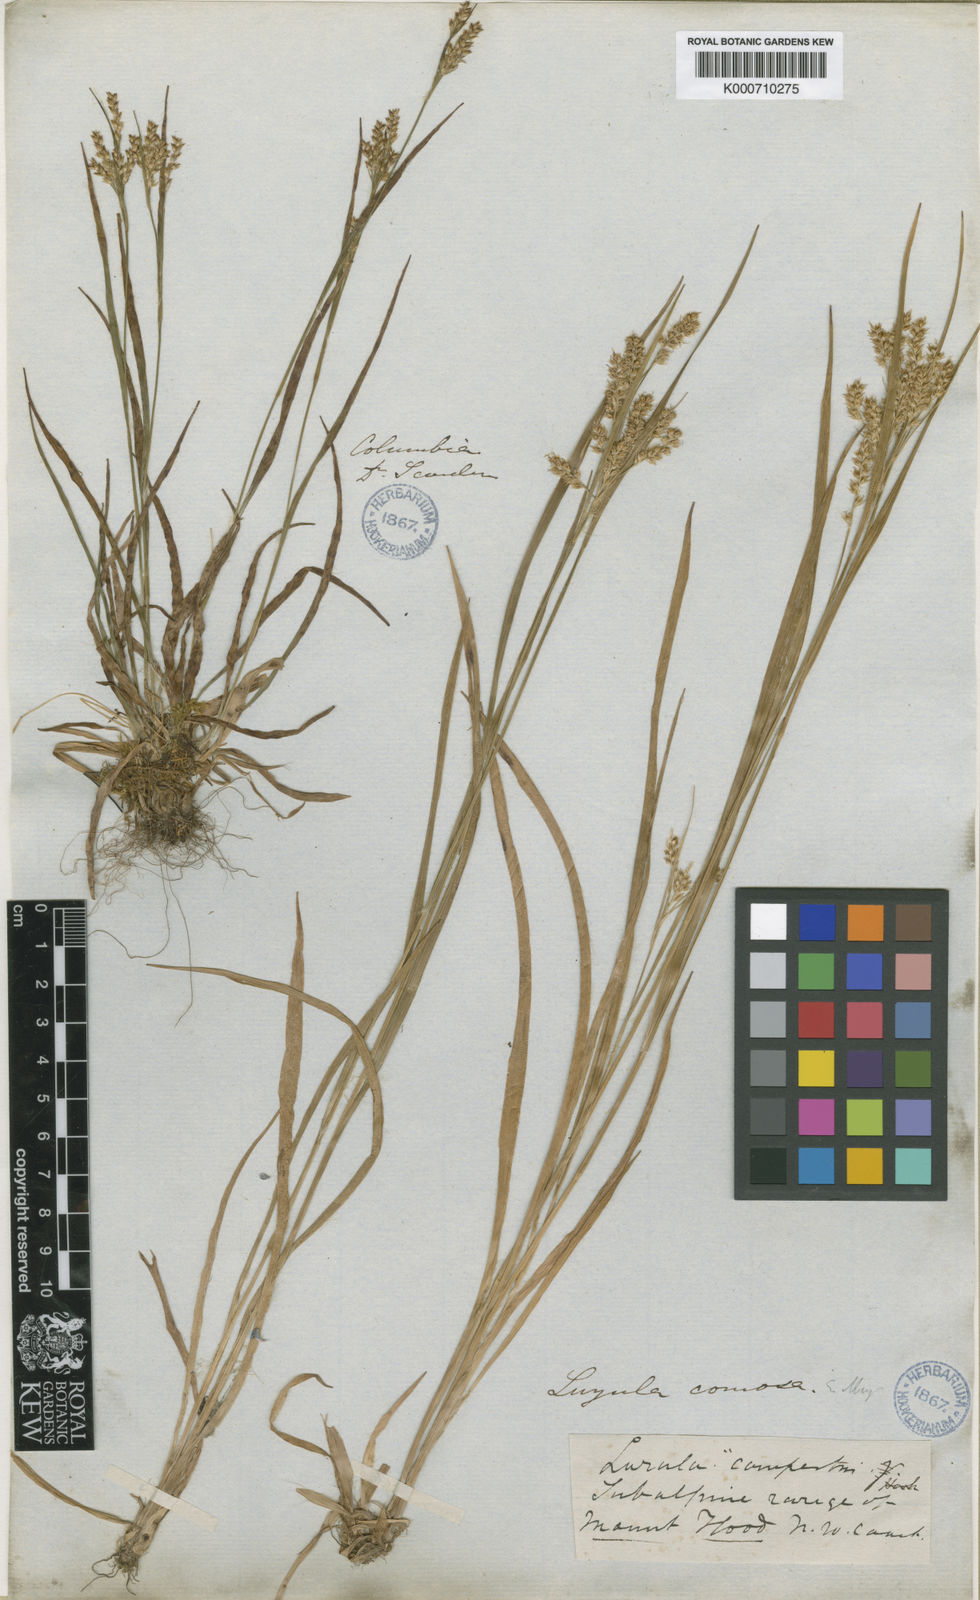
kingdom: Plantae
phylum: Tracheophyta
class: Liliopsida
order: Poales
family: Juncaceae
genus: Luzula
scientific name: Luzula comosa
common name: Pacific woodrush
